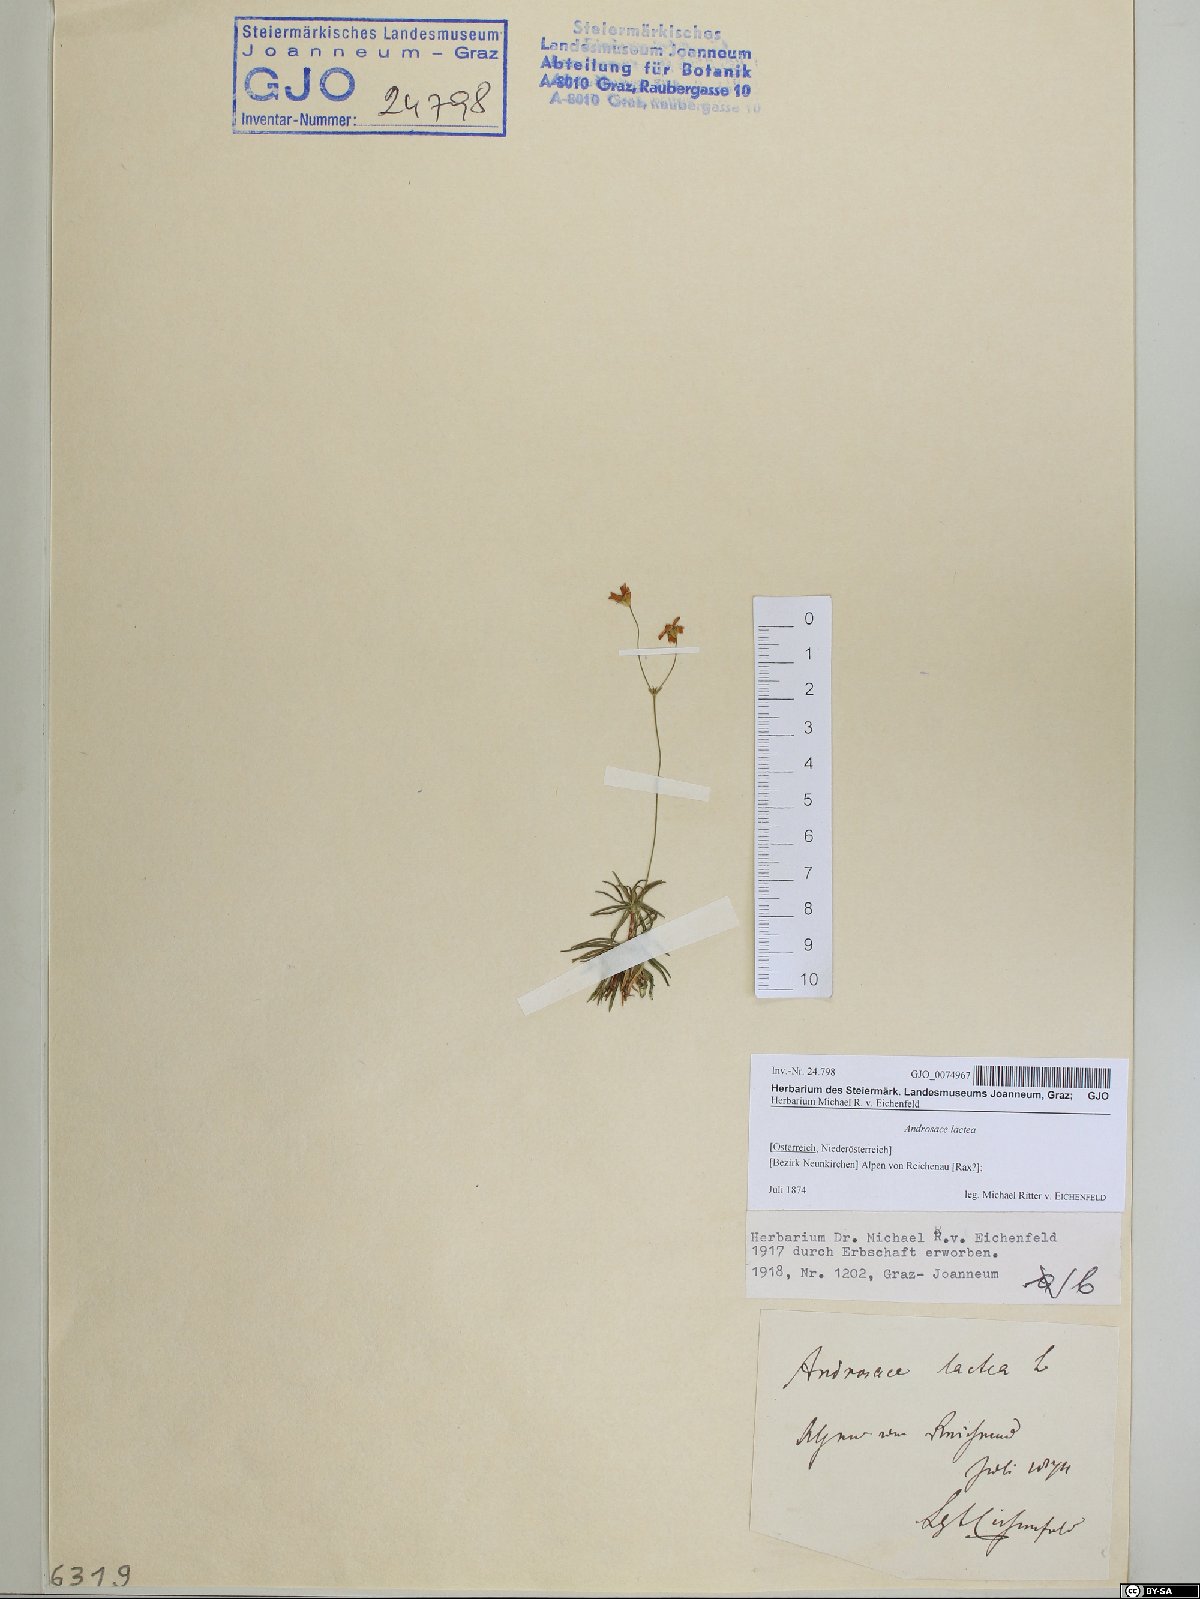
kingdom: Plantae
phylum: Tracheophyta
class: Magnoliopsida
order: Ericales
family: Primulaceae
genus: Androsace
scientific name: Androsace lactea
